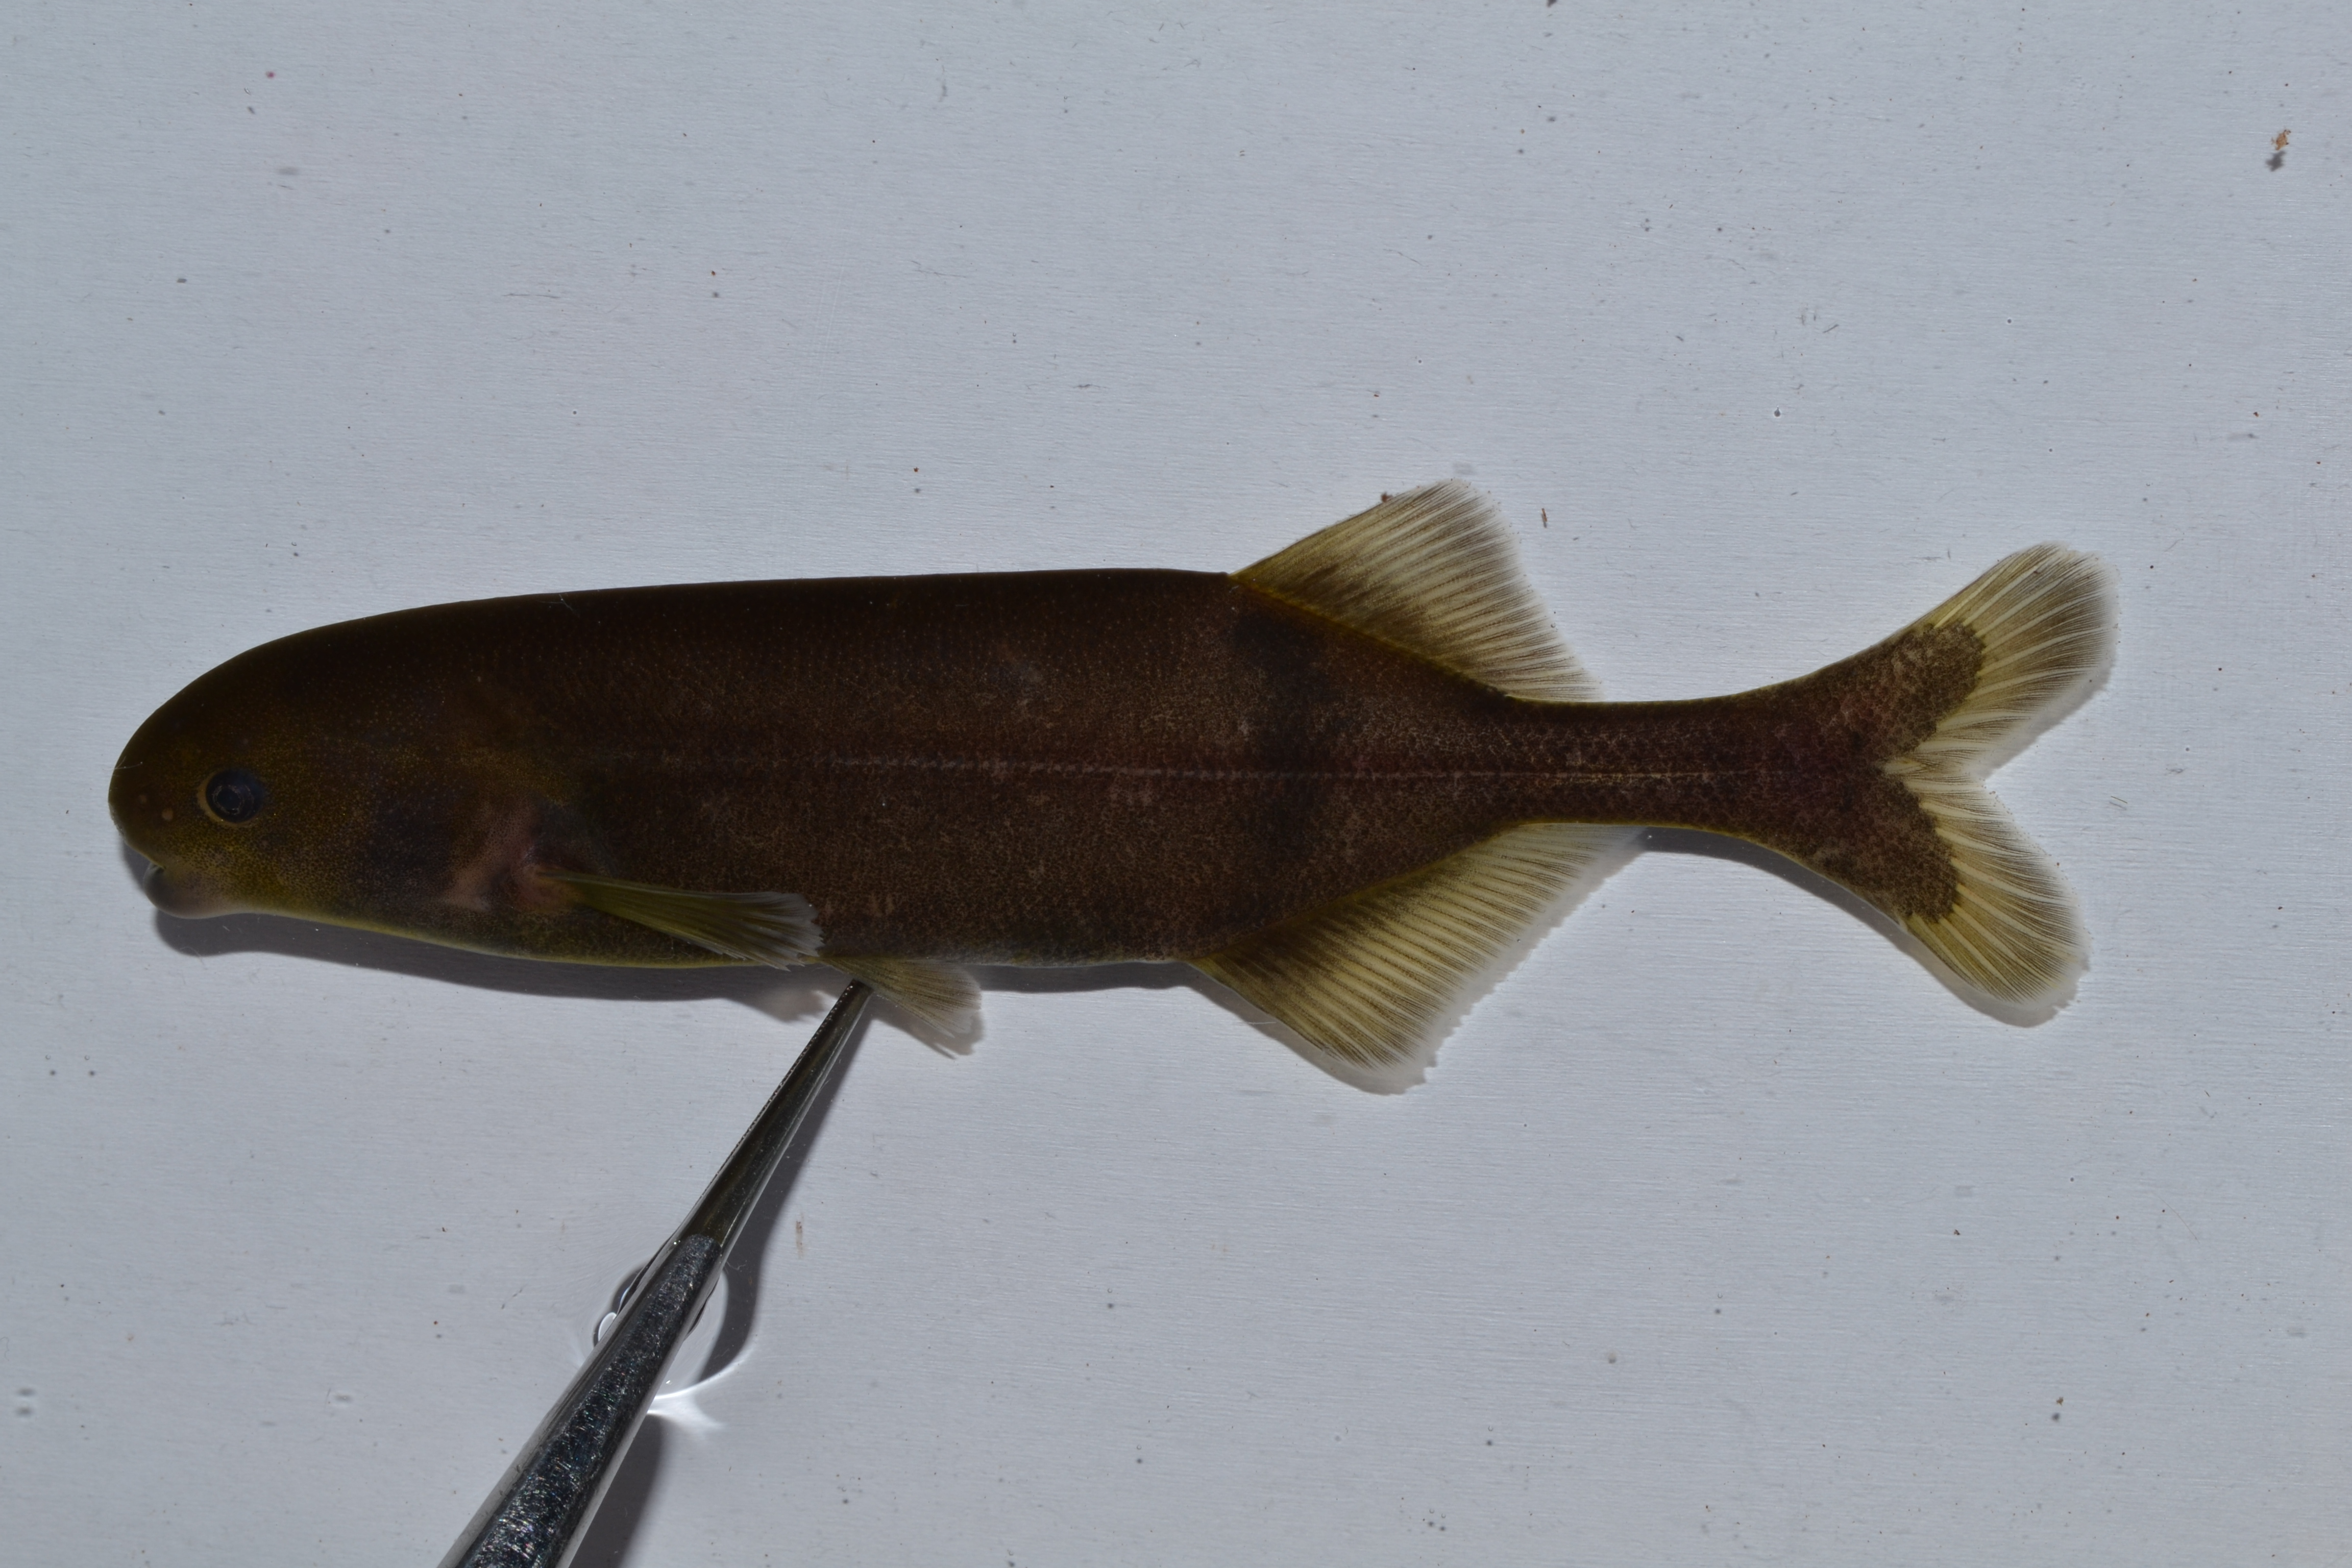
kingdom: Animalia
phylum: Chordata
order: Osteoglossiformes
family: Mormyridae
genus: Hippopotamyrus
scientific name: Hippopotamyrus
